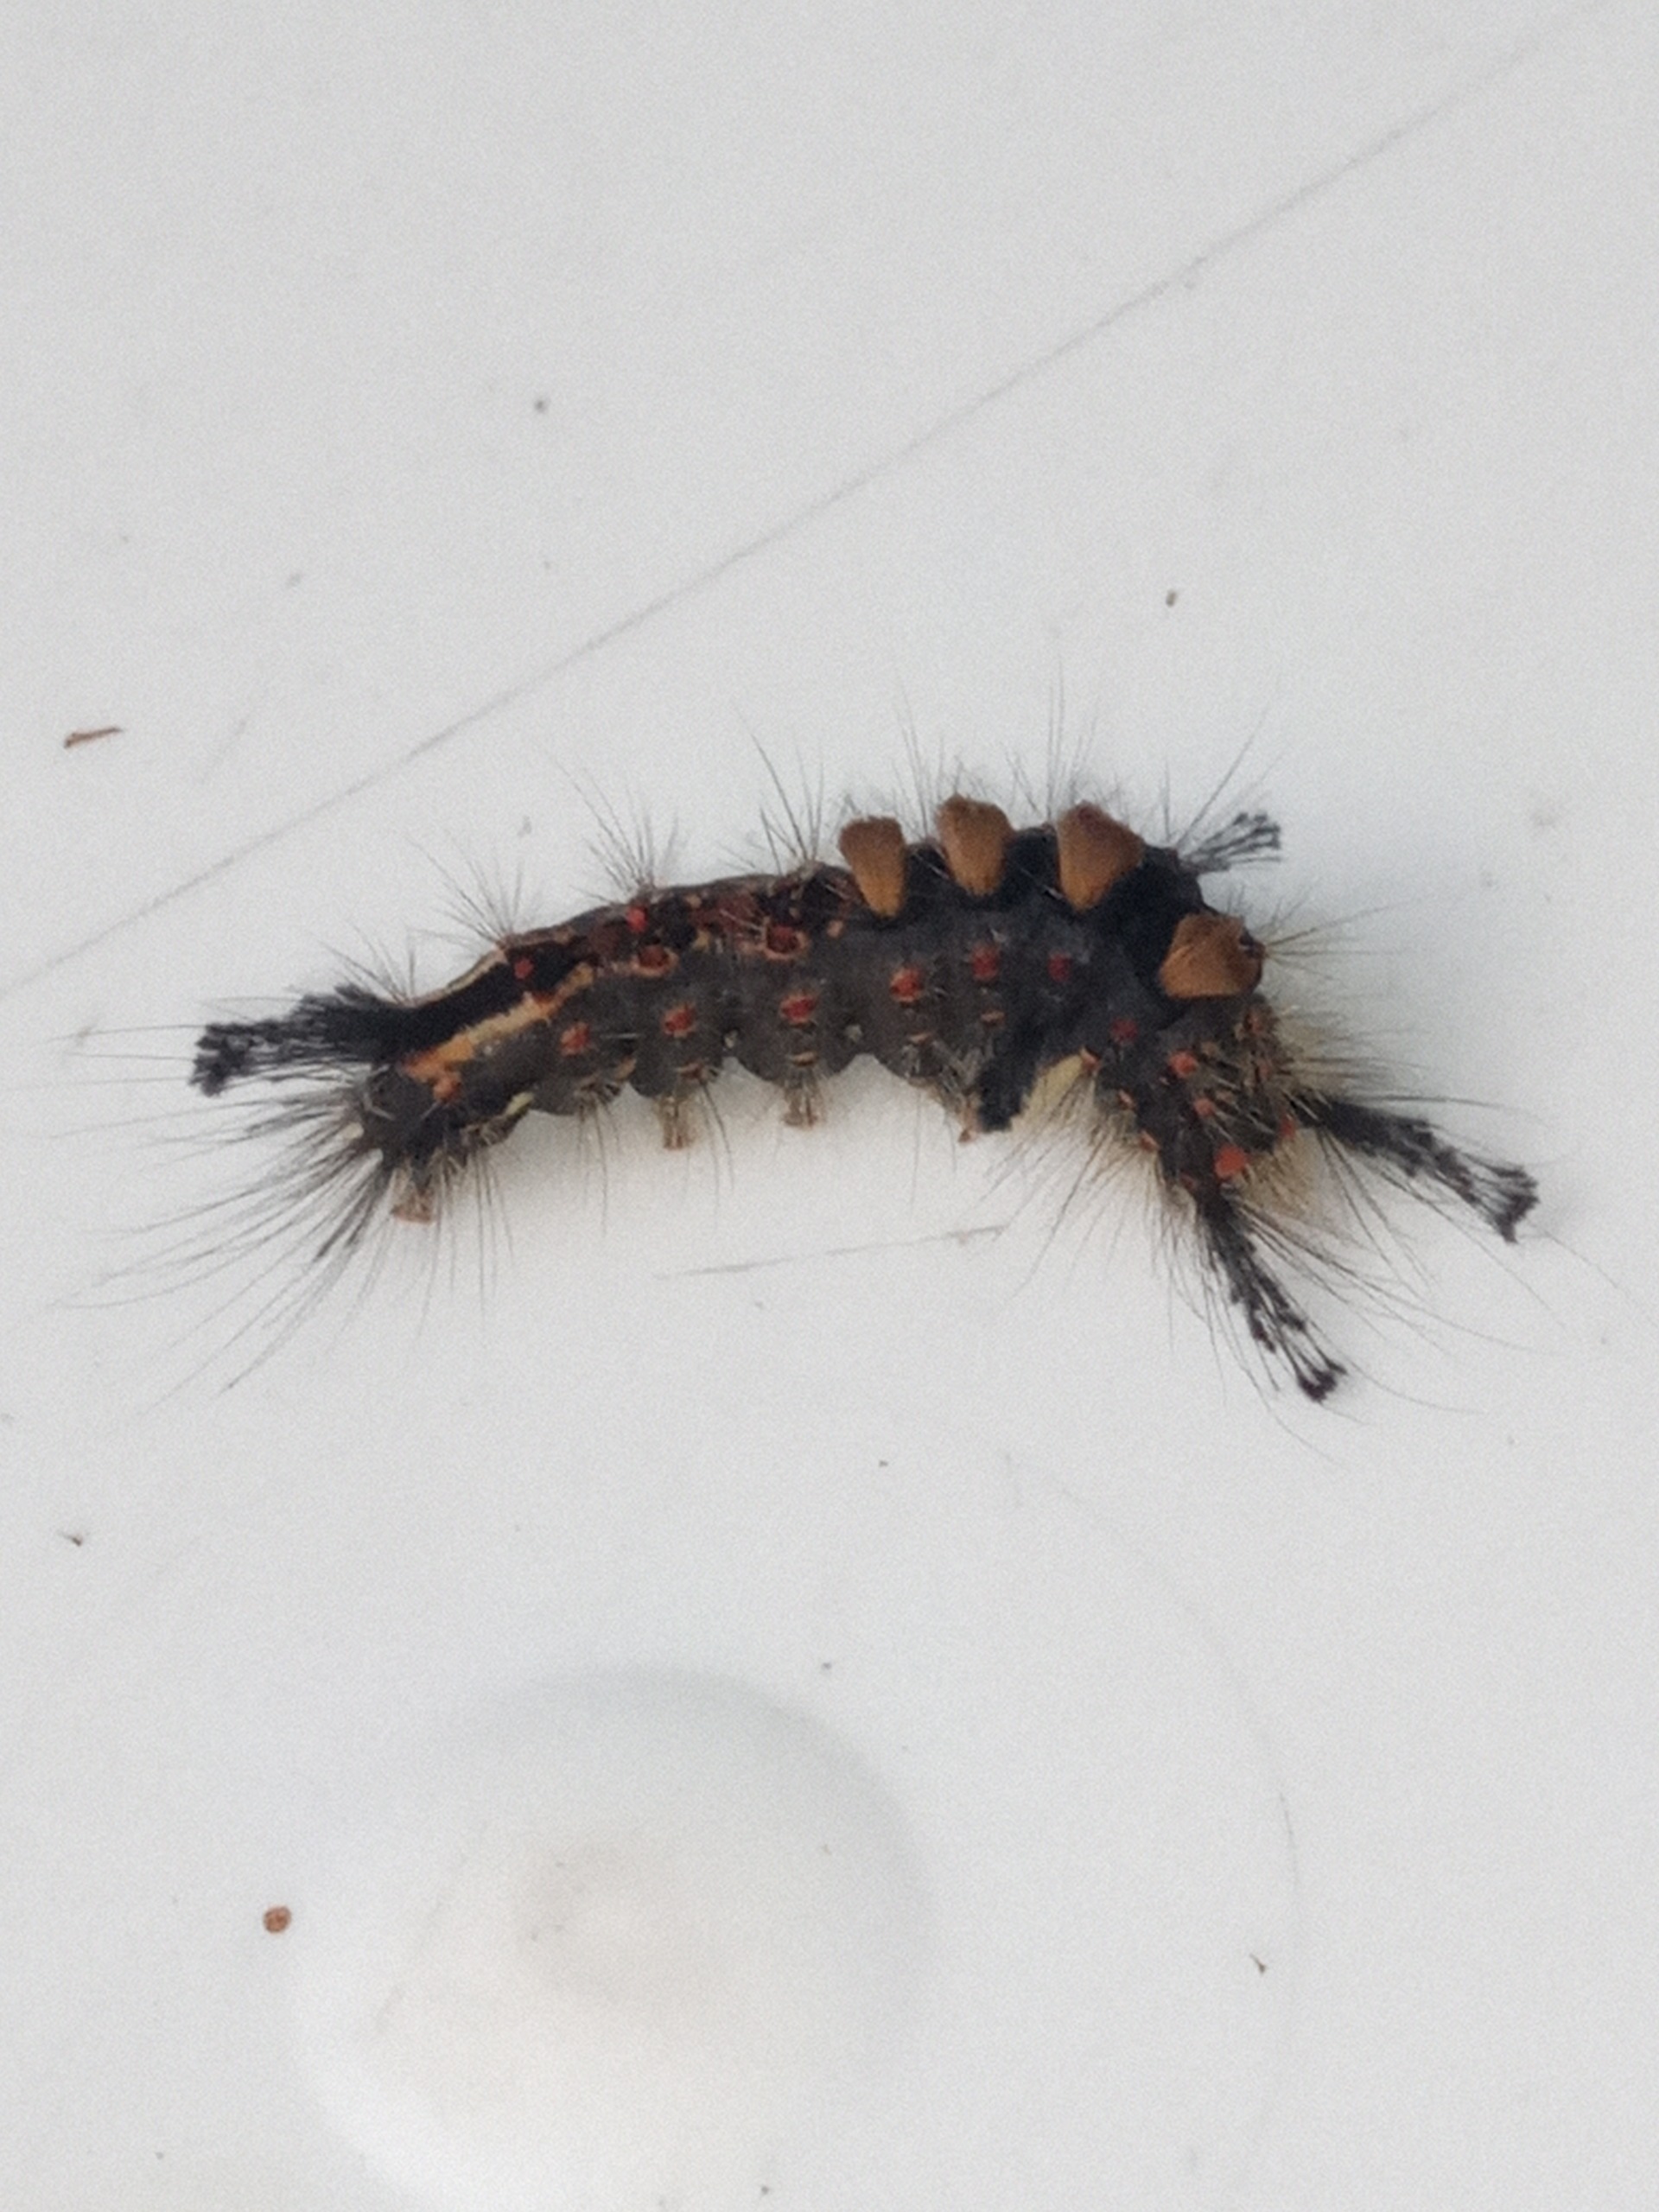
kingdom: Animalia
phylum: Arthropoda
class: Insecta
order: Lepidoptera
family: Erebidae
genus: Orgyia
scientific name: Orgyia antiqua
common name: Lille penselspinder
